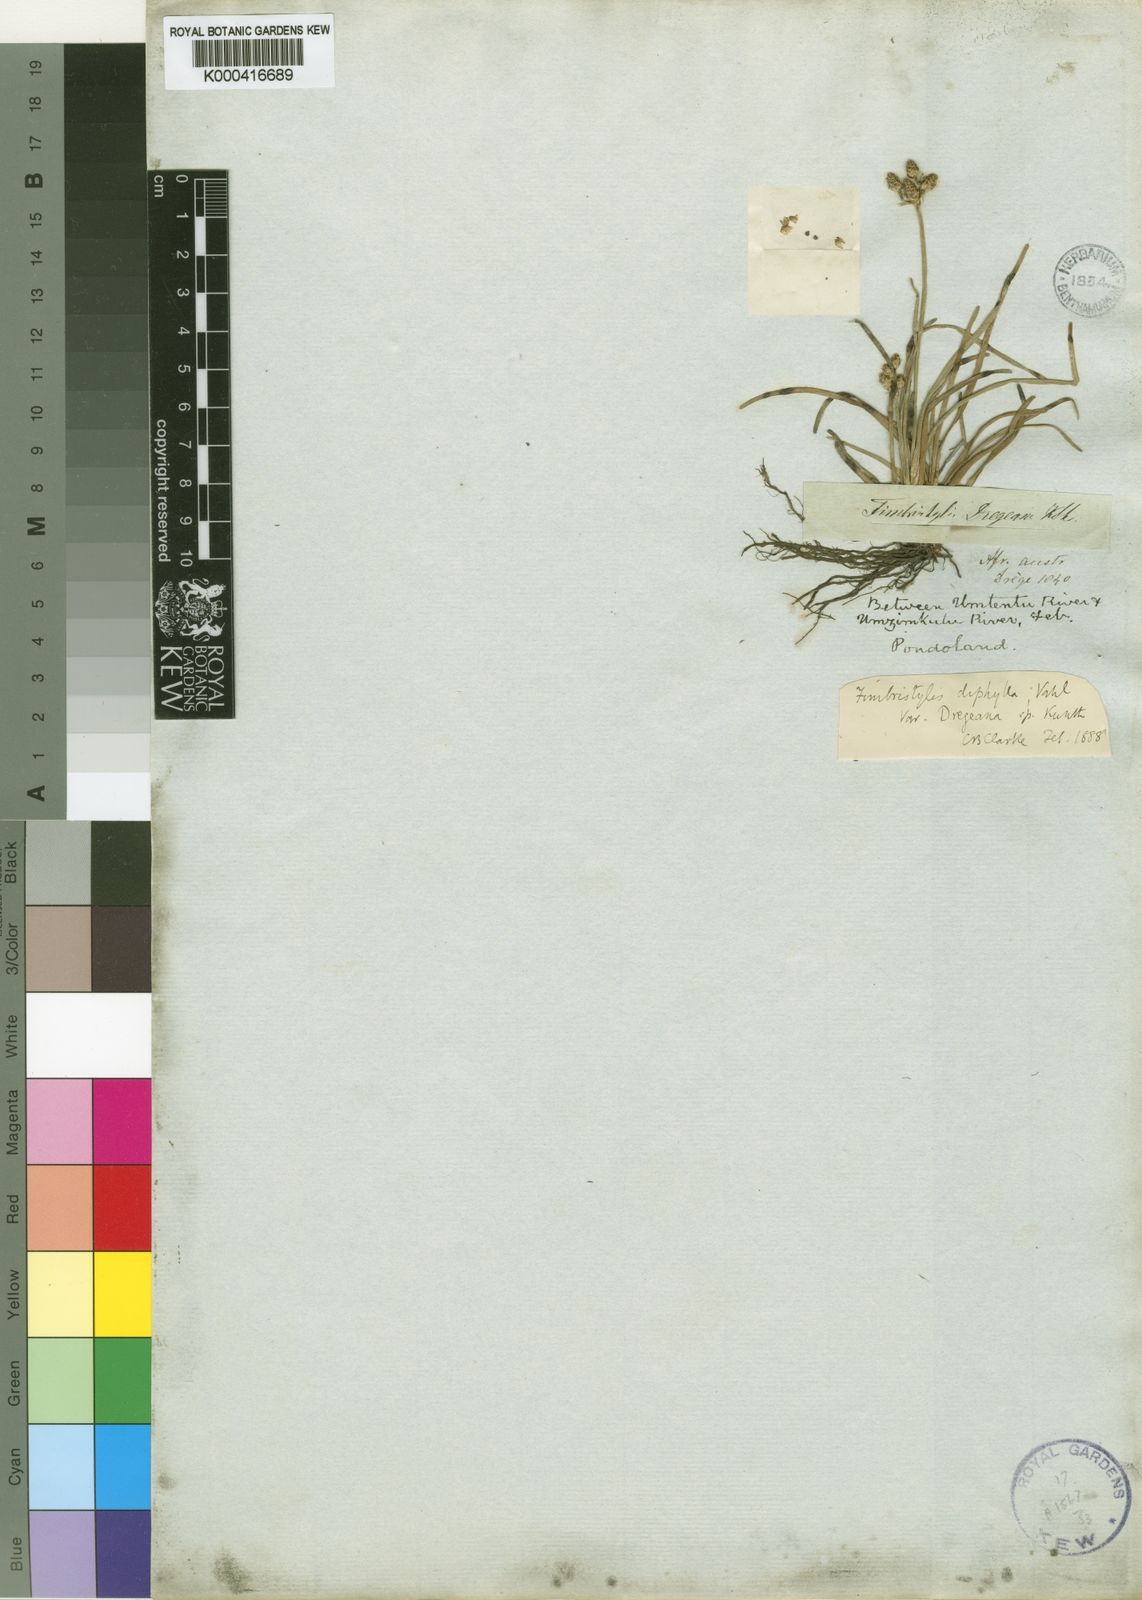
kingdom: Plantae
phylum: Tracheophyta
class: Liliopsida
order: Poales
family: Cyperaceae
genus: Fimbristylis
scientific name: Fimbristylis dichotoma
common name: Forked fimbry
